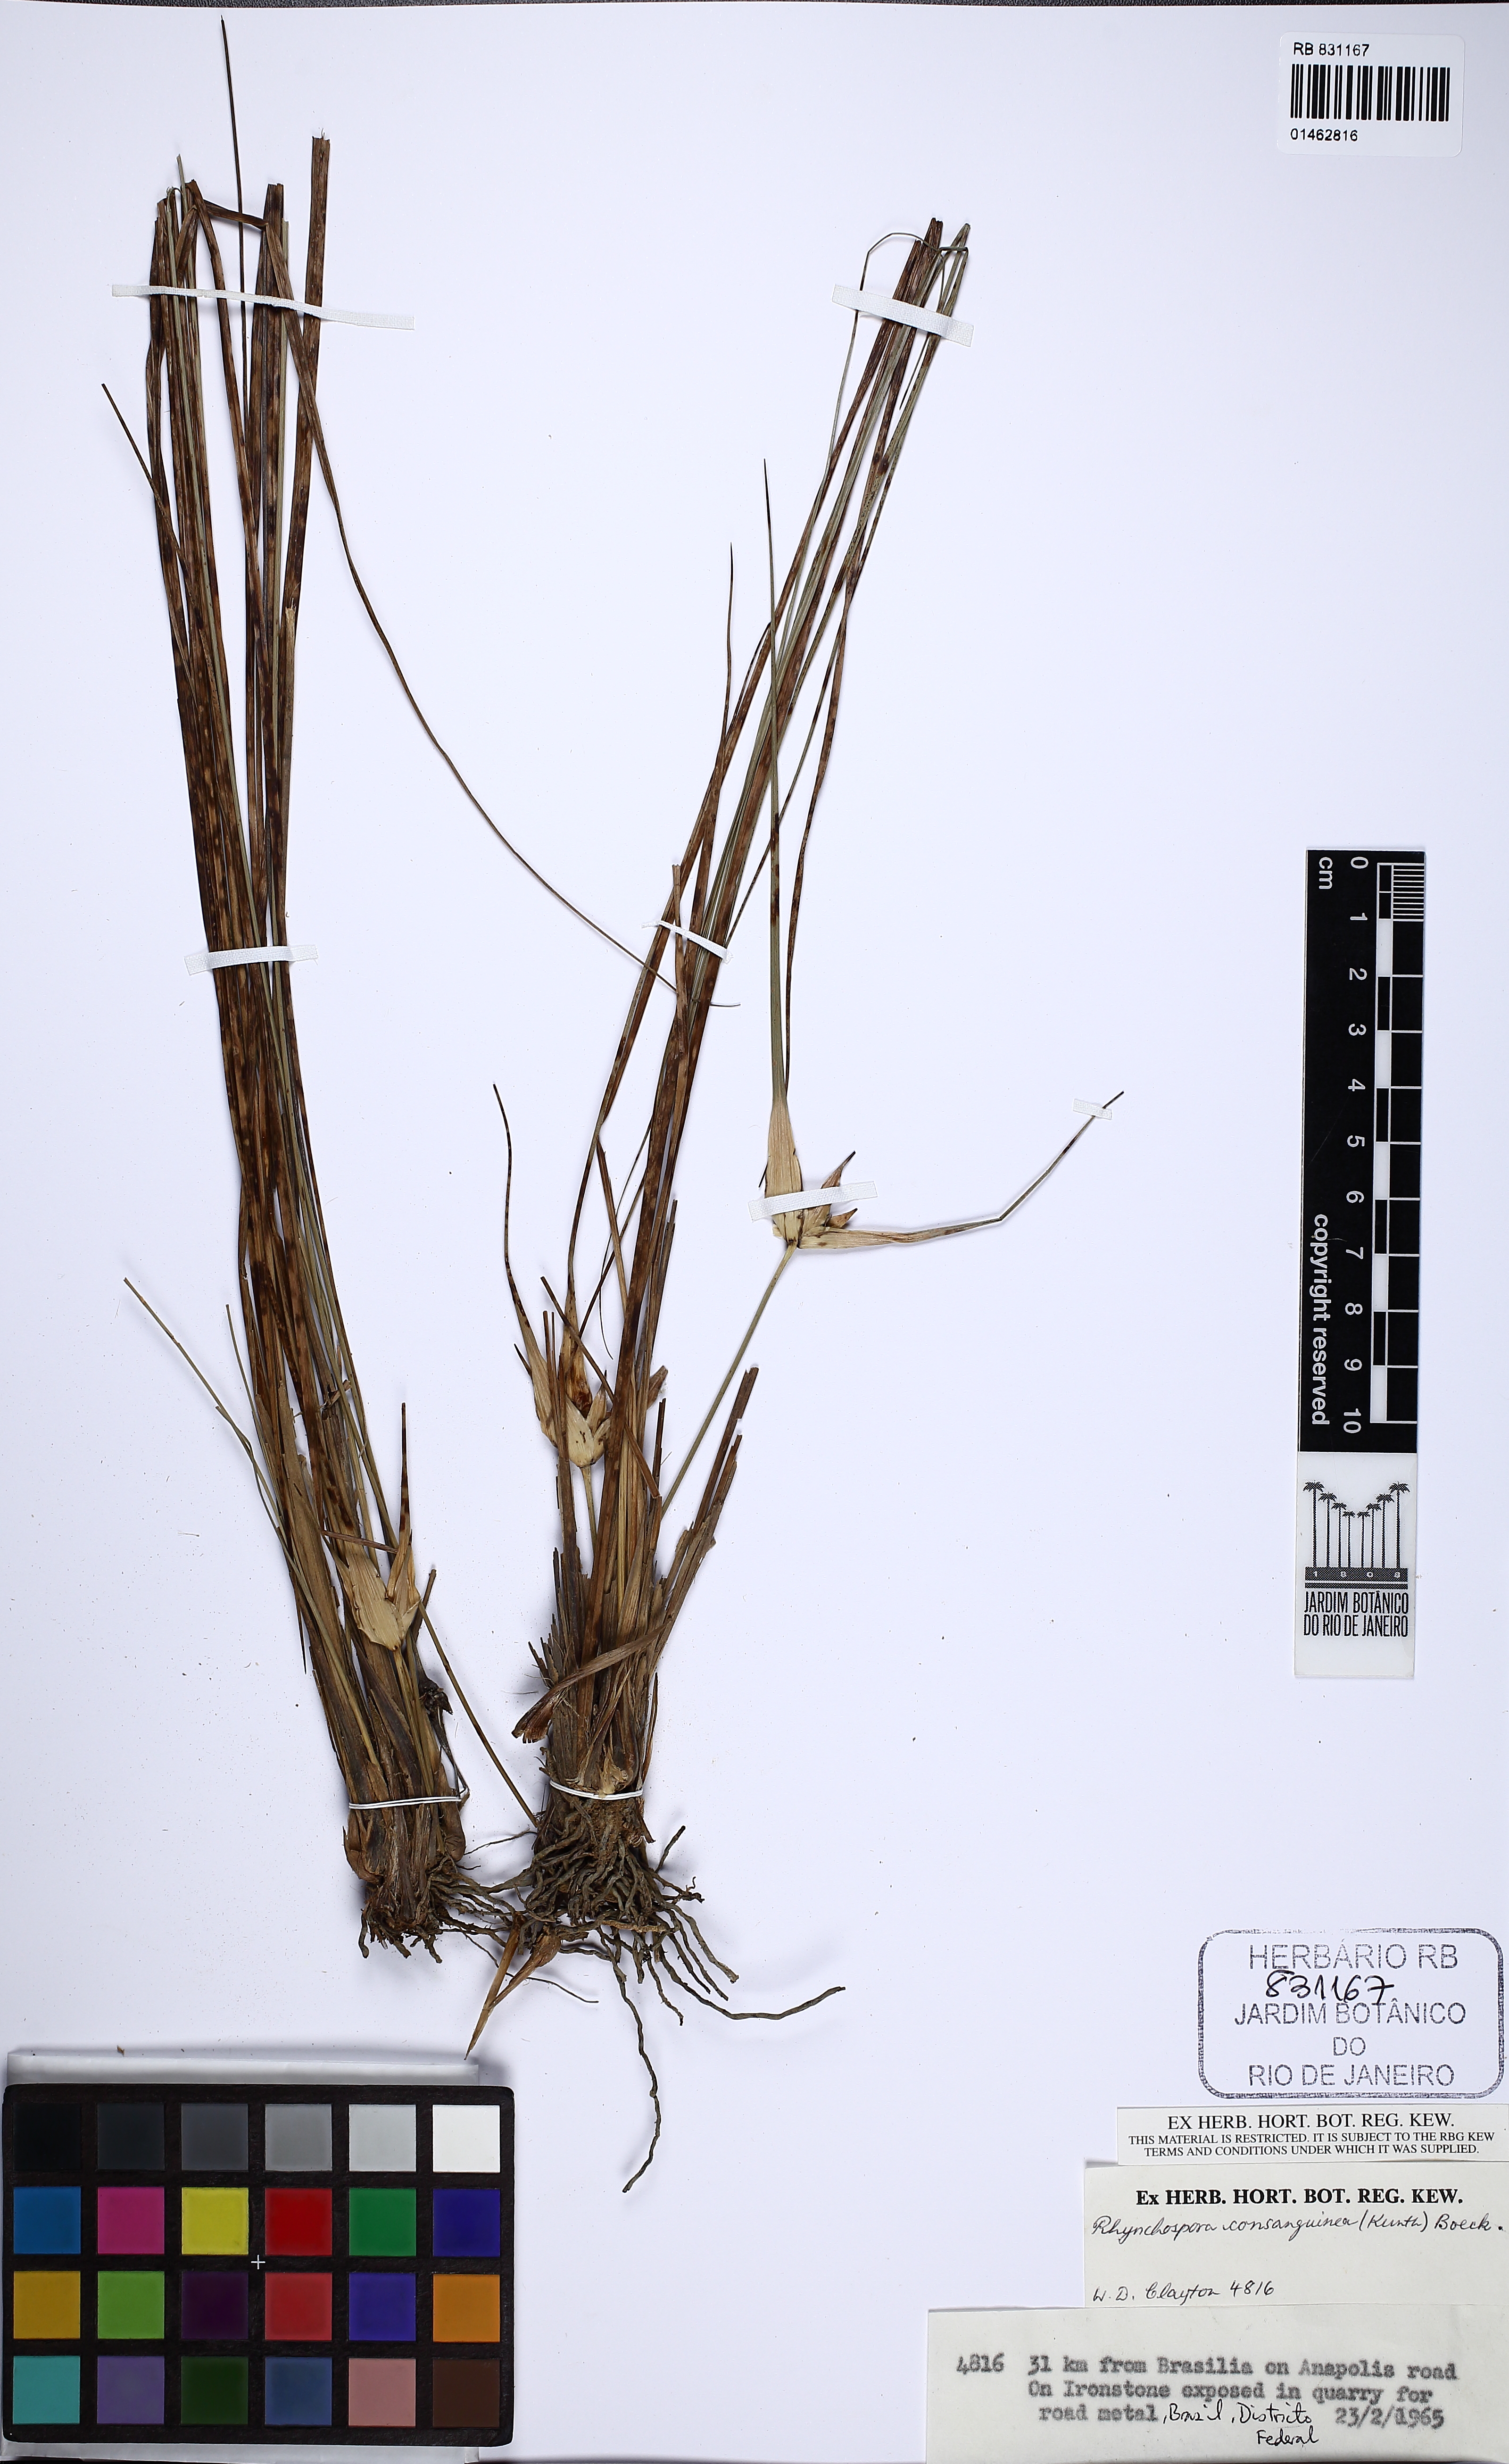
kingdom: Plantae
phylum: Tracheophyta
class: Liliopsida
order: Poales
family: Cyperaceae
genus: Rhynchospora
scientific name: Rhynchospora consanguinea
